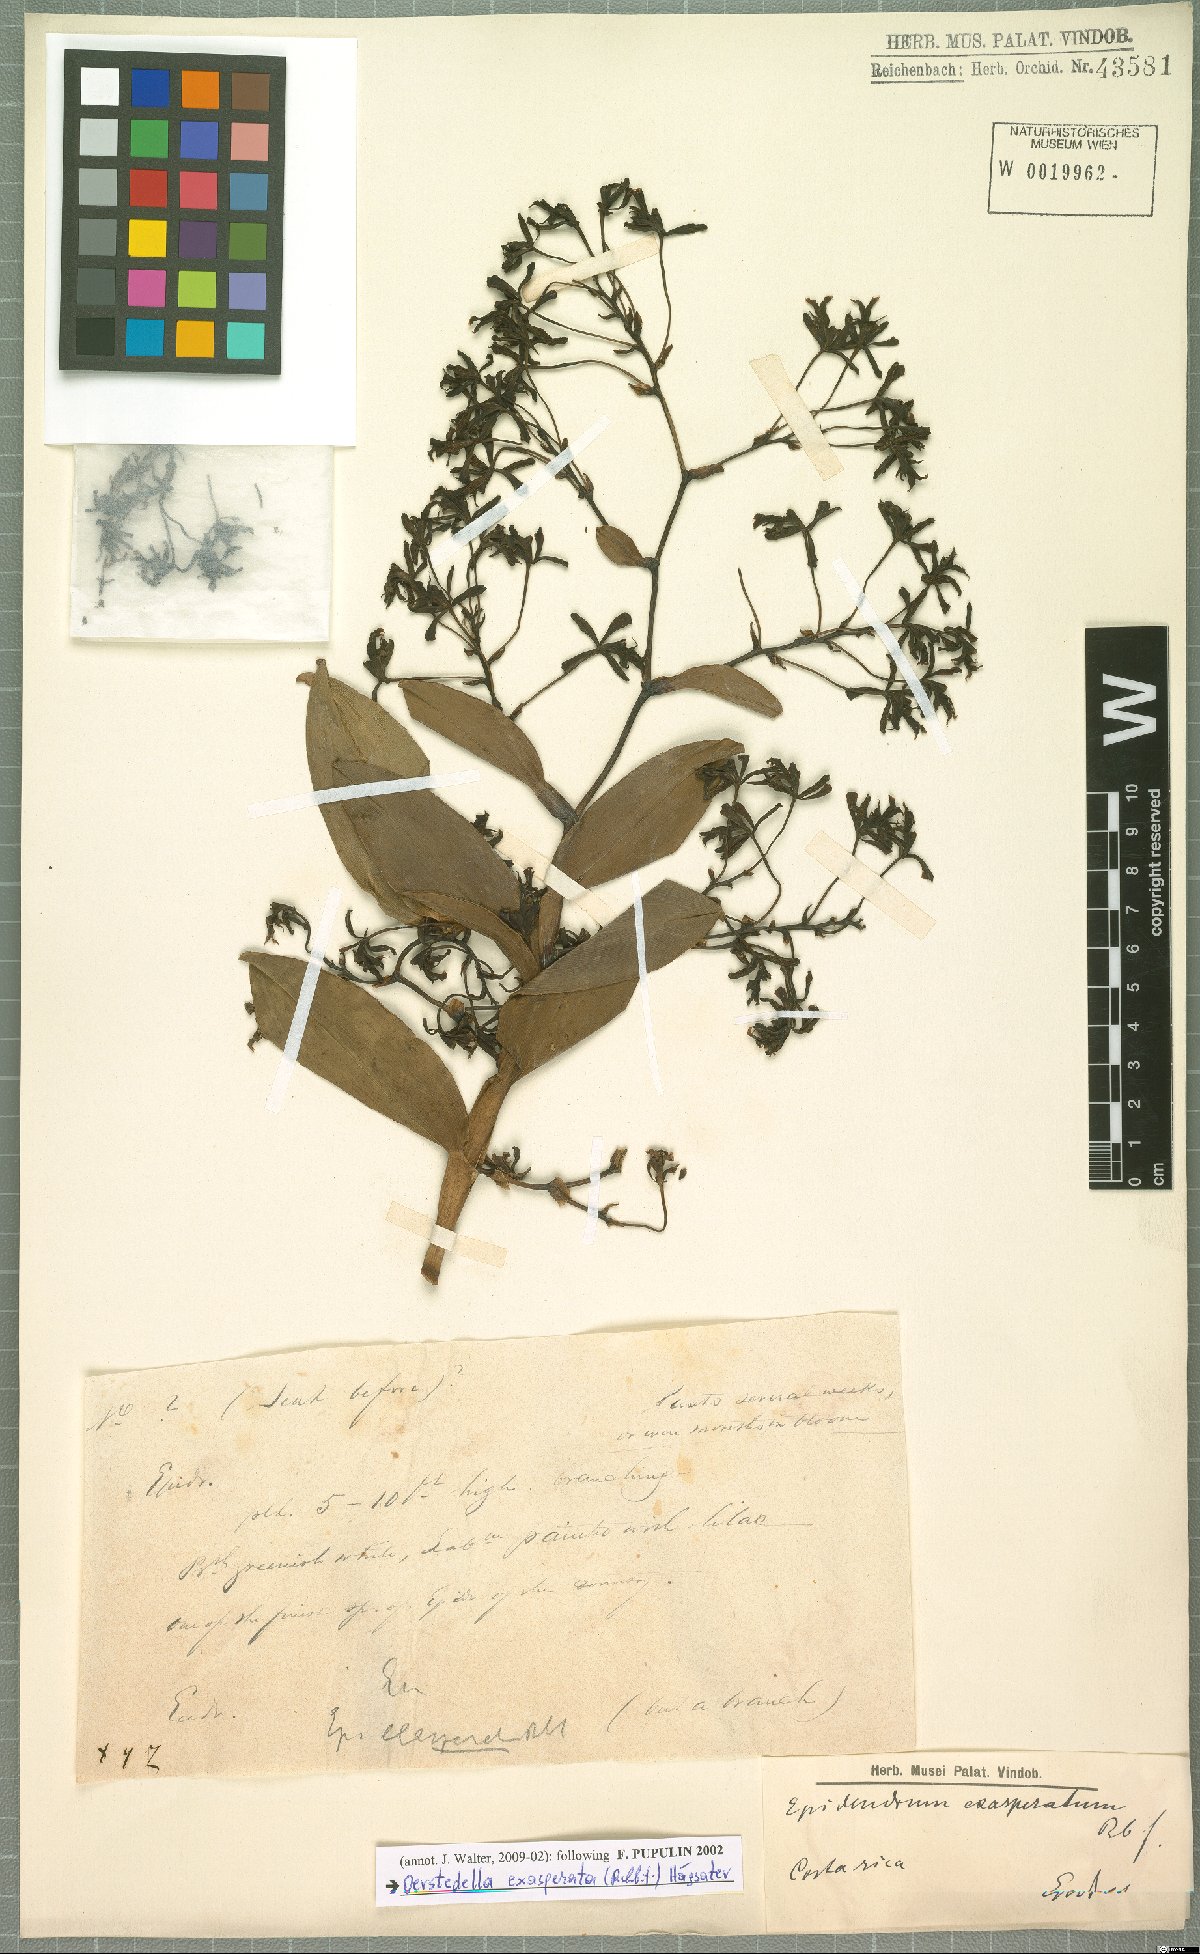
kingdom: Plantae
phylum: Tracheophyta
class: Liliopsida
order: Asparagales
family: Orchidaceae
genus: Epidendrum
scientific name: Epidendrum exasperatum
